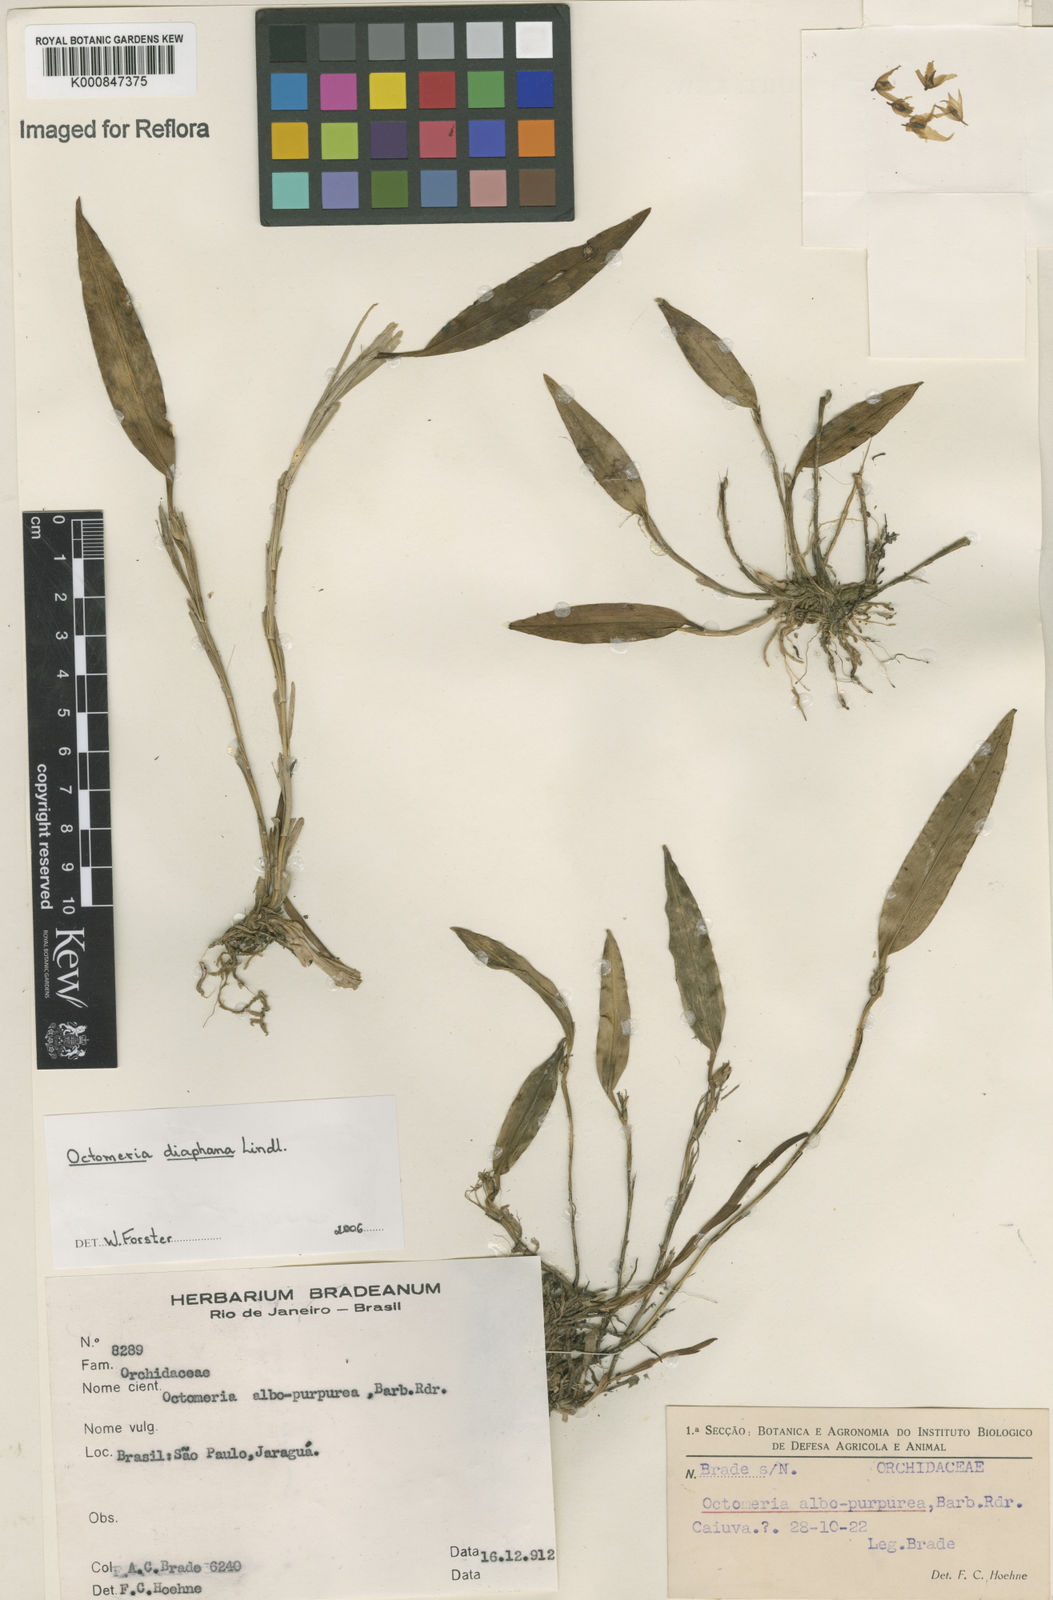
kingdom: Plantae
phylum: Tracheophyta
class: Liliopsida
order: Asparagales
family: Orchidaceae
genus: Octomeria
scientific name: Octomeria diaphana
